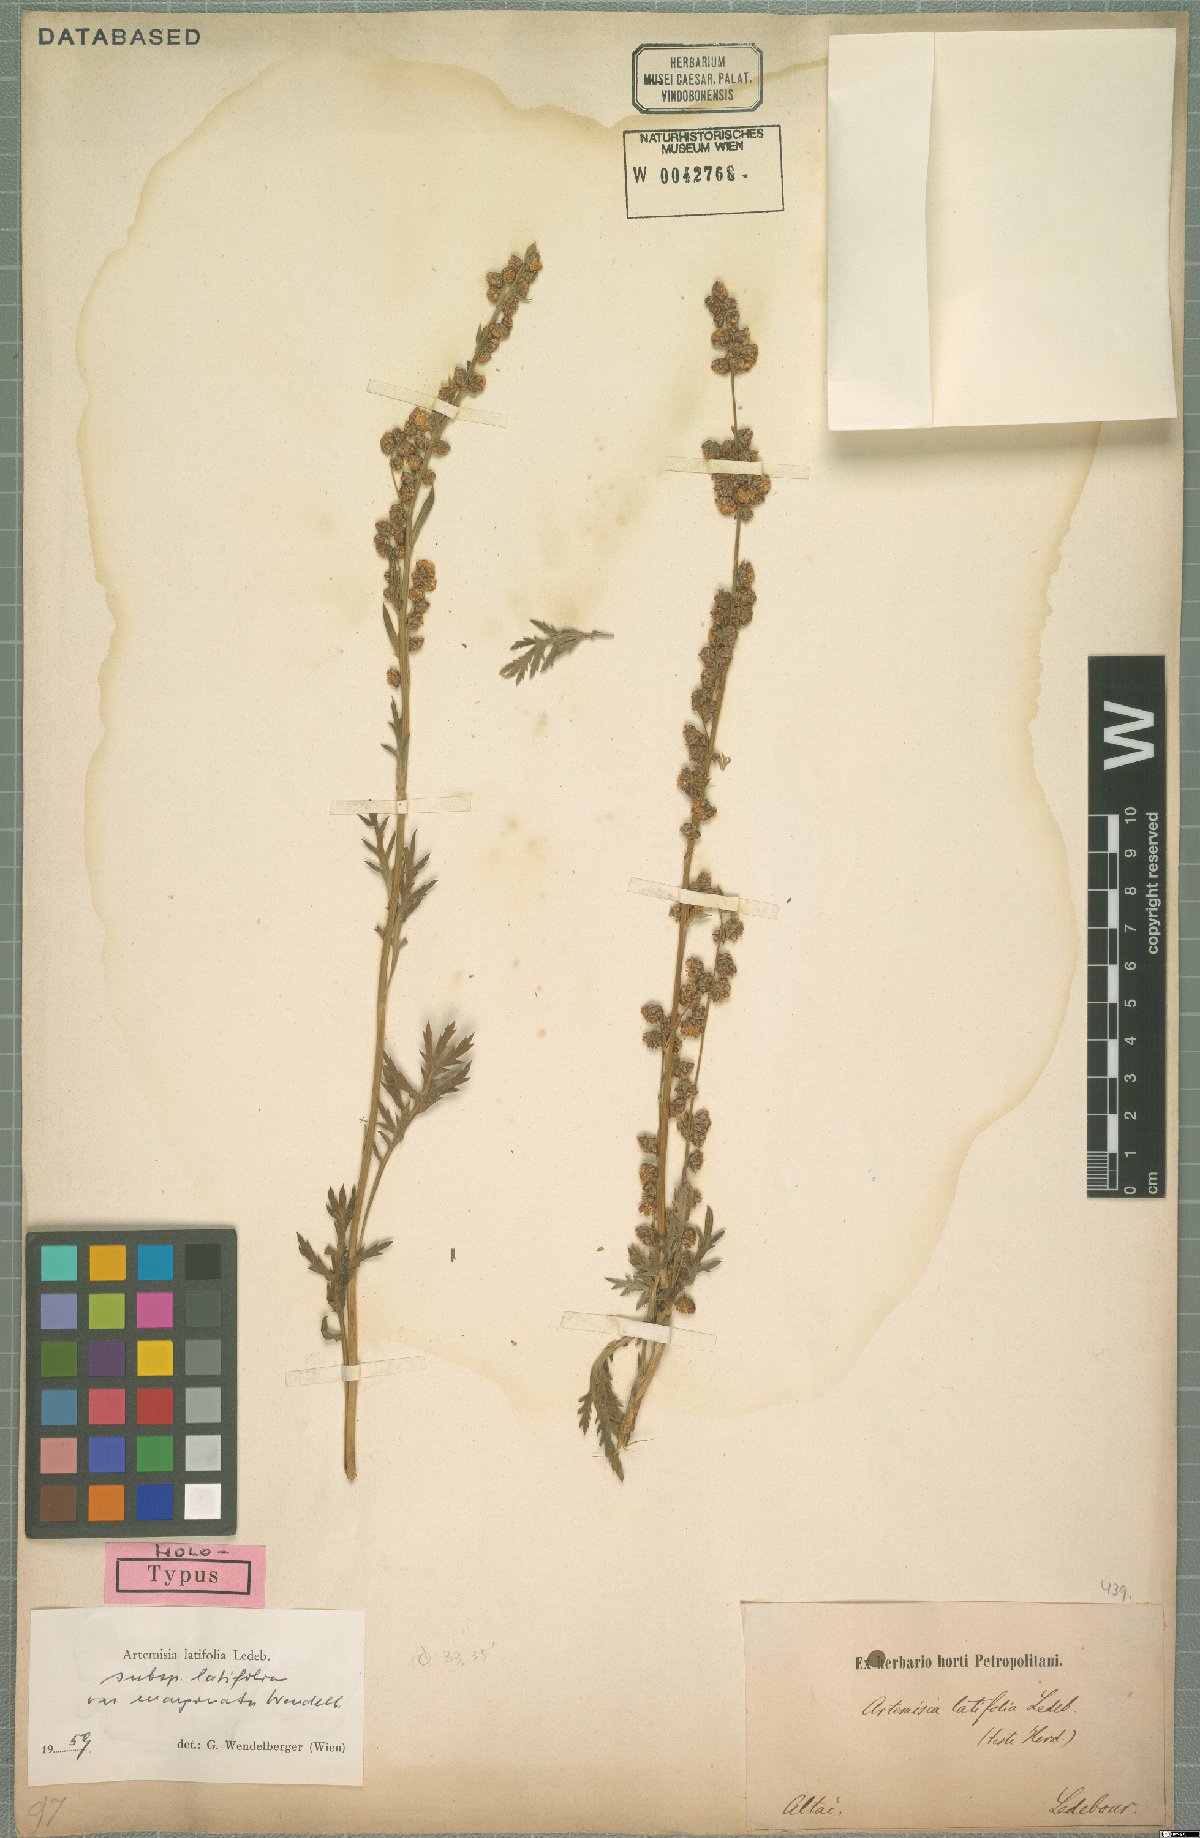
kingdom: Plantae
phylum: Tracheophyta
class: Magnoliopsida
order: Asterales
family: Asteraceae
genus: Artemisia
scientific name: Artemisia latifolia
